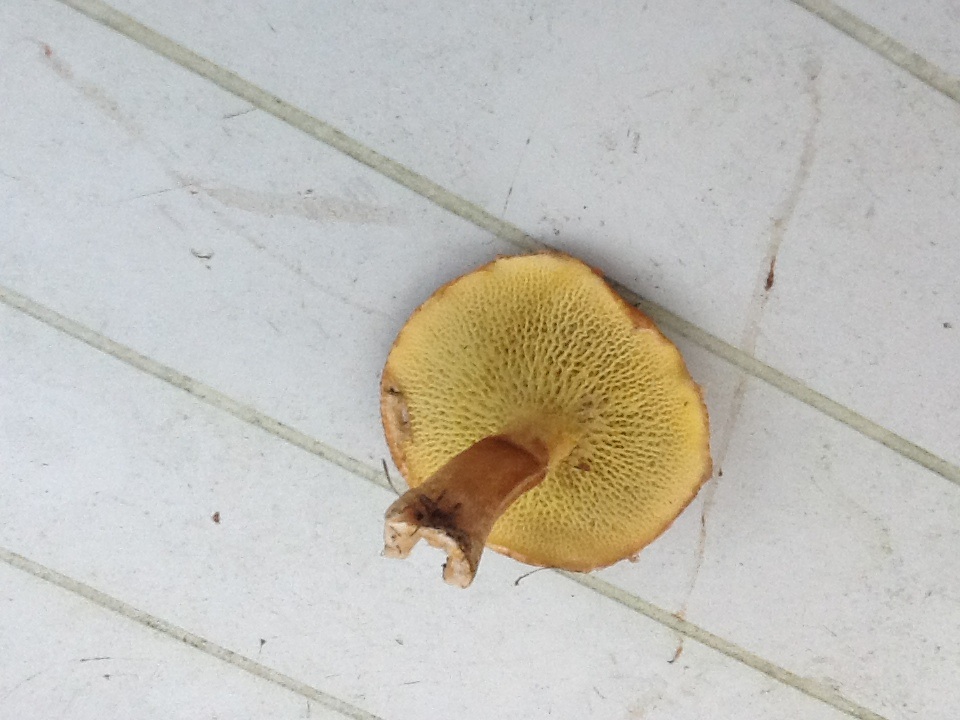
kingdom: Fungi
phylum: Basidiomycota
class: Agaricomycetes
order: Boletales
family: Suillaceae
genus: Suillus
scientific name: Suillus cavipes
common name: hulstokket slimrørhat
